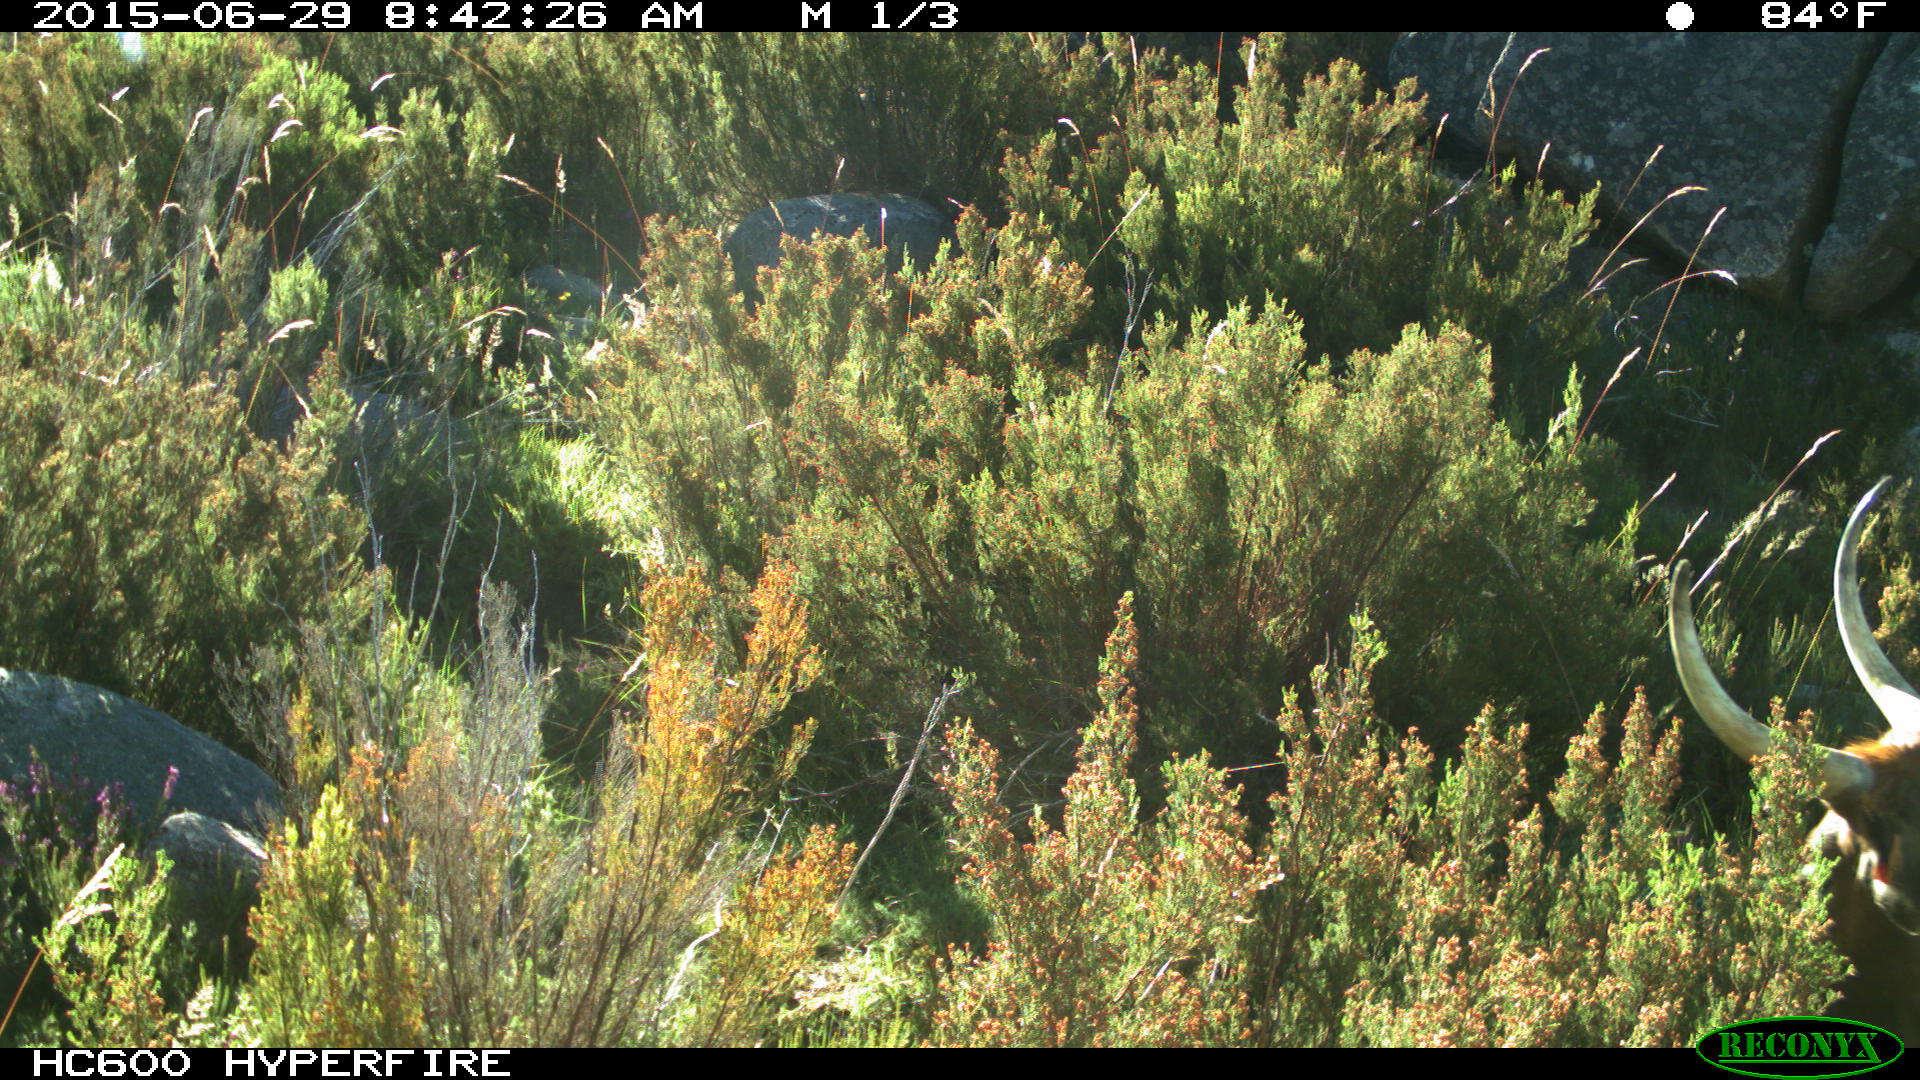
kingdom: Animalia
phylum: Chordata
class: Mammalia
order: Artiodactyla
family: Bovidae
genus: Bos
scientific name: Bos taurus
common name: Domesticated cattle
